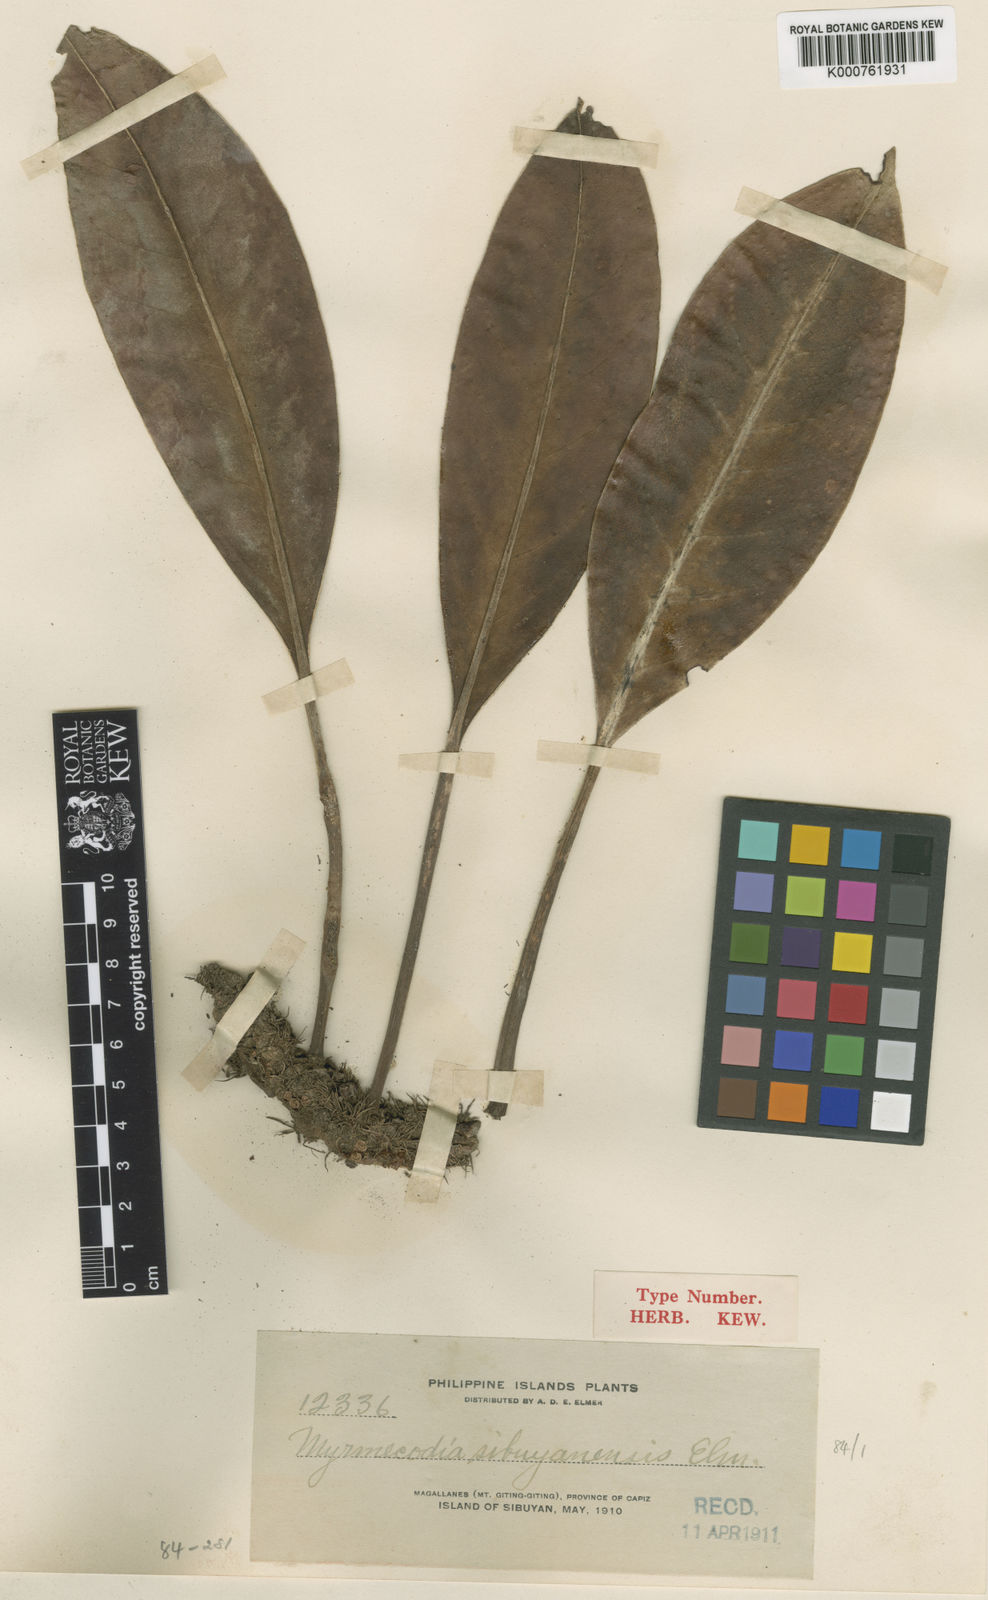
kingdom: Plantae
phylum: Tracheophyta
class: Magnoliopsida
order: Gentianales
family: Rubiaceae
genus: Myrmecodia
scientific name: Myrmecodia tuberosa
